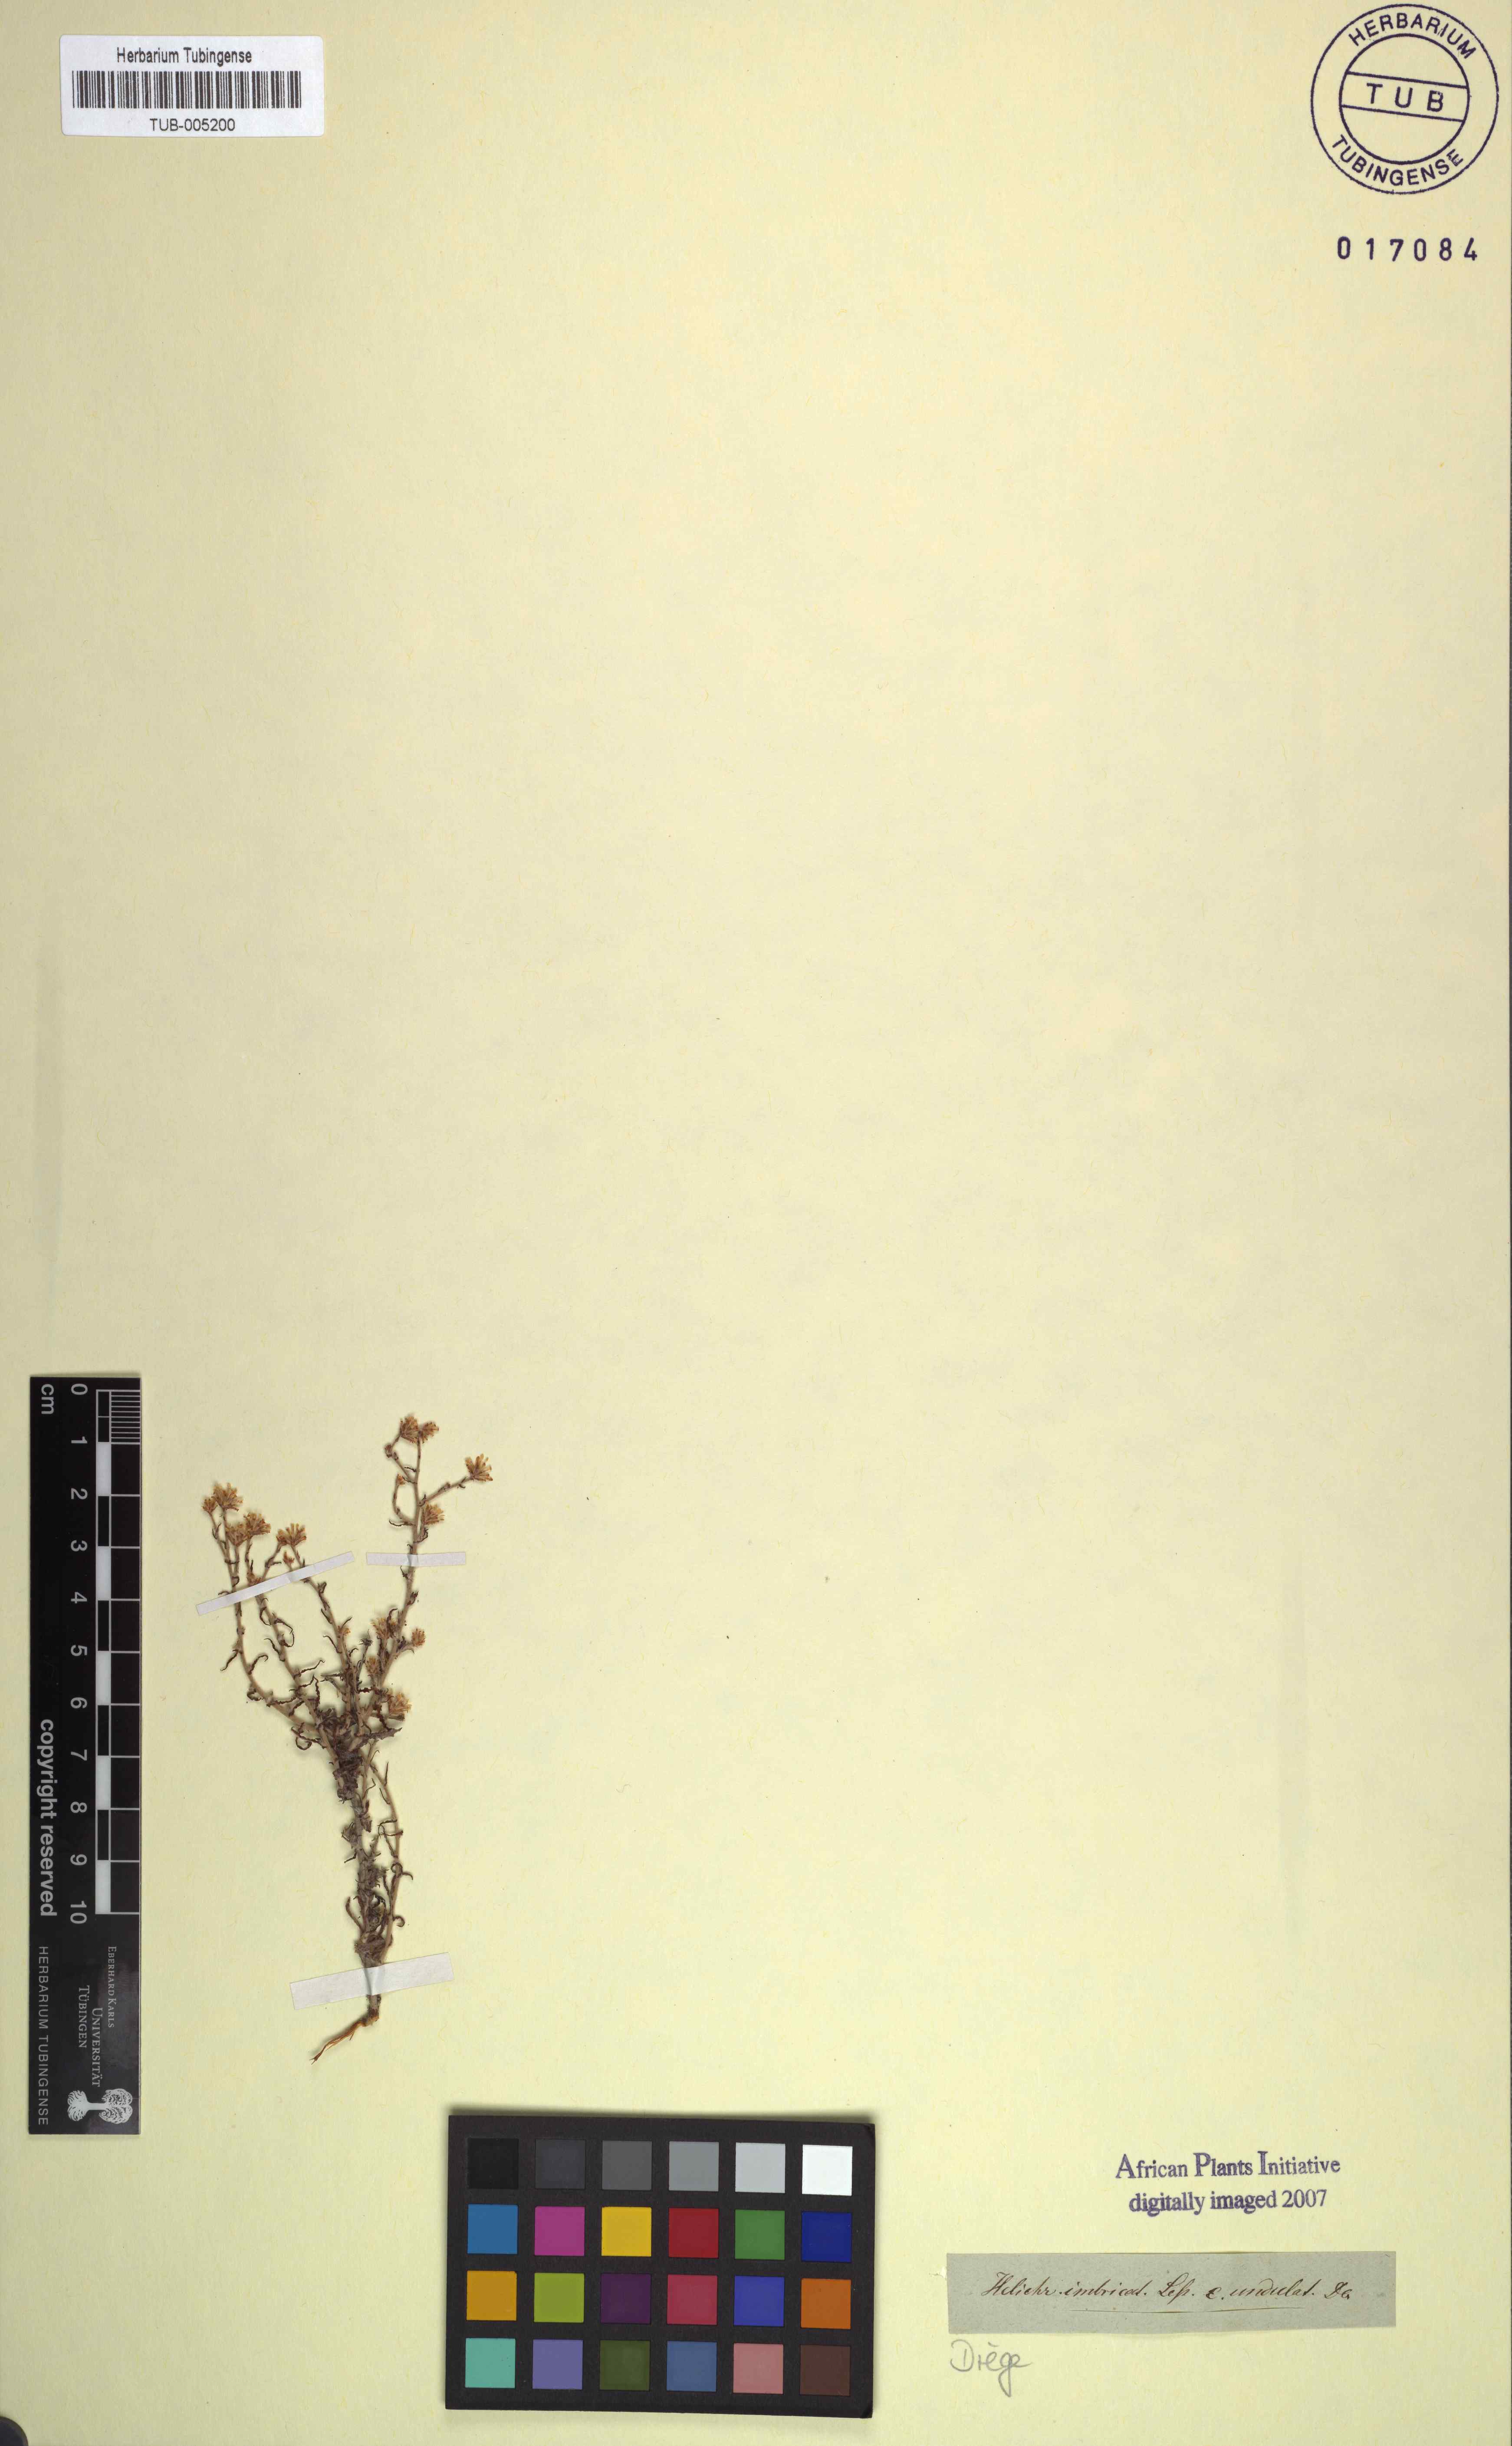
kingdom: Plantae
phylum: Tracheophyta
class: Magnoliopsida
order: Asterales
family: Asteraceae
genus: Helichrysum
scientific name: Helichrysum cochleariforme
